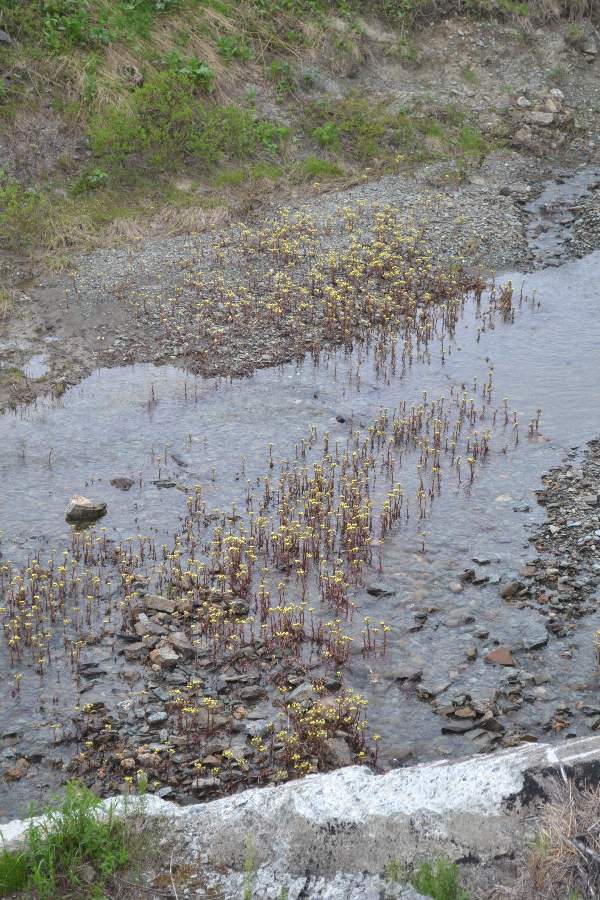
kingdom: Plantae
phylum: Tracheophyta
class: Magnoliopsida
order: Asterales
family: Asteraceae
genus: Petasites
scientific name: Petasites radiatus
